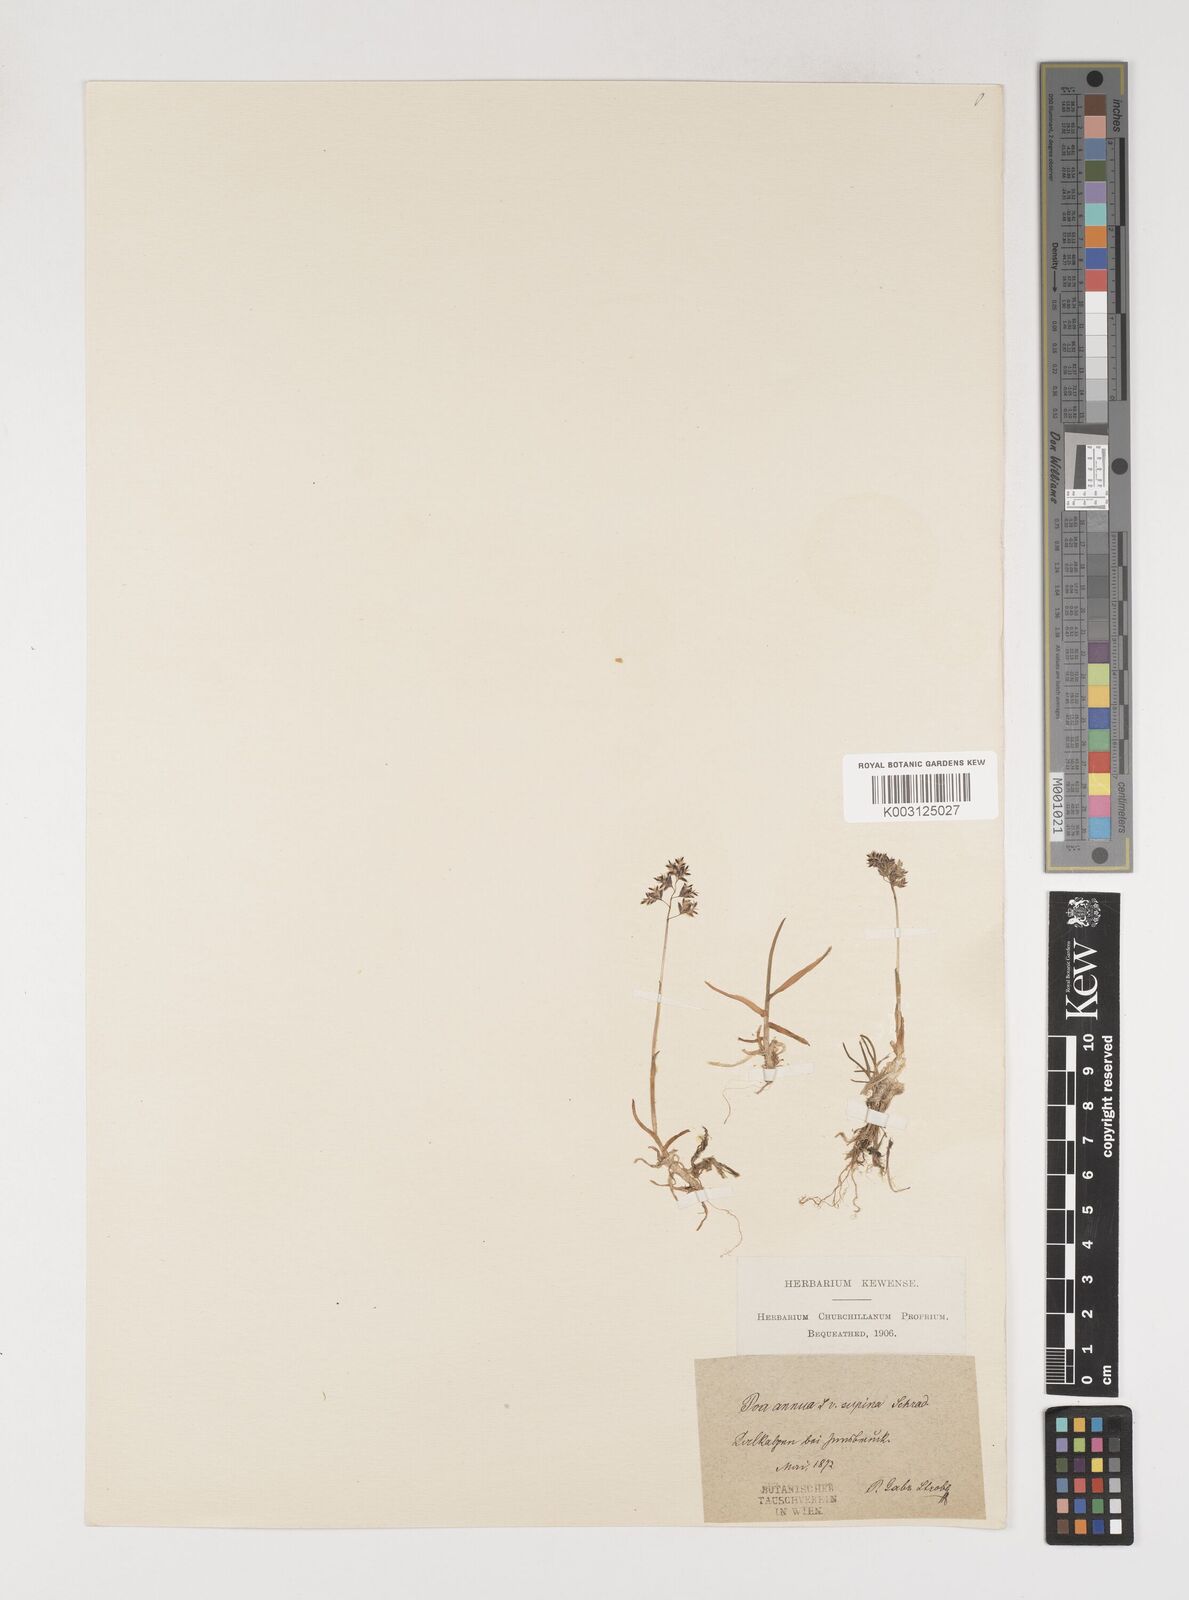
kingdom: Plantae
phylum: Tracheophyta
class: Liliopsida
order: Poales
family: Poaceae
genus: Poa
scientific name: Poa supina
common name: Supina bluegrass
